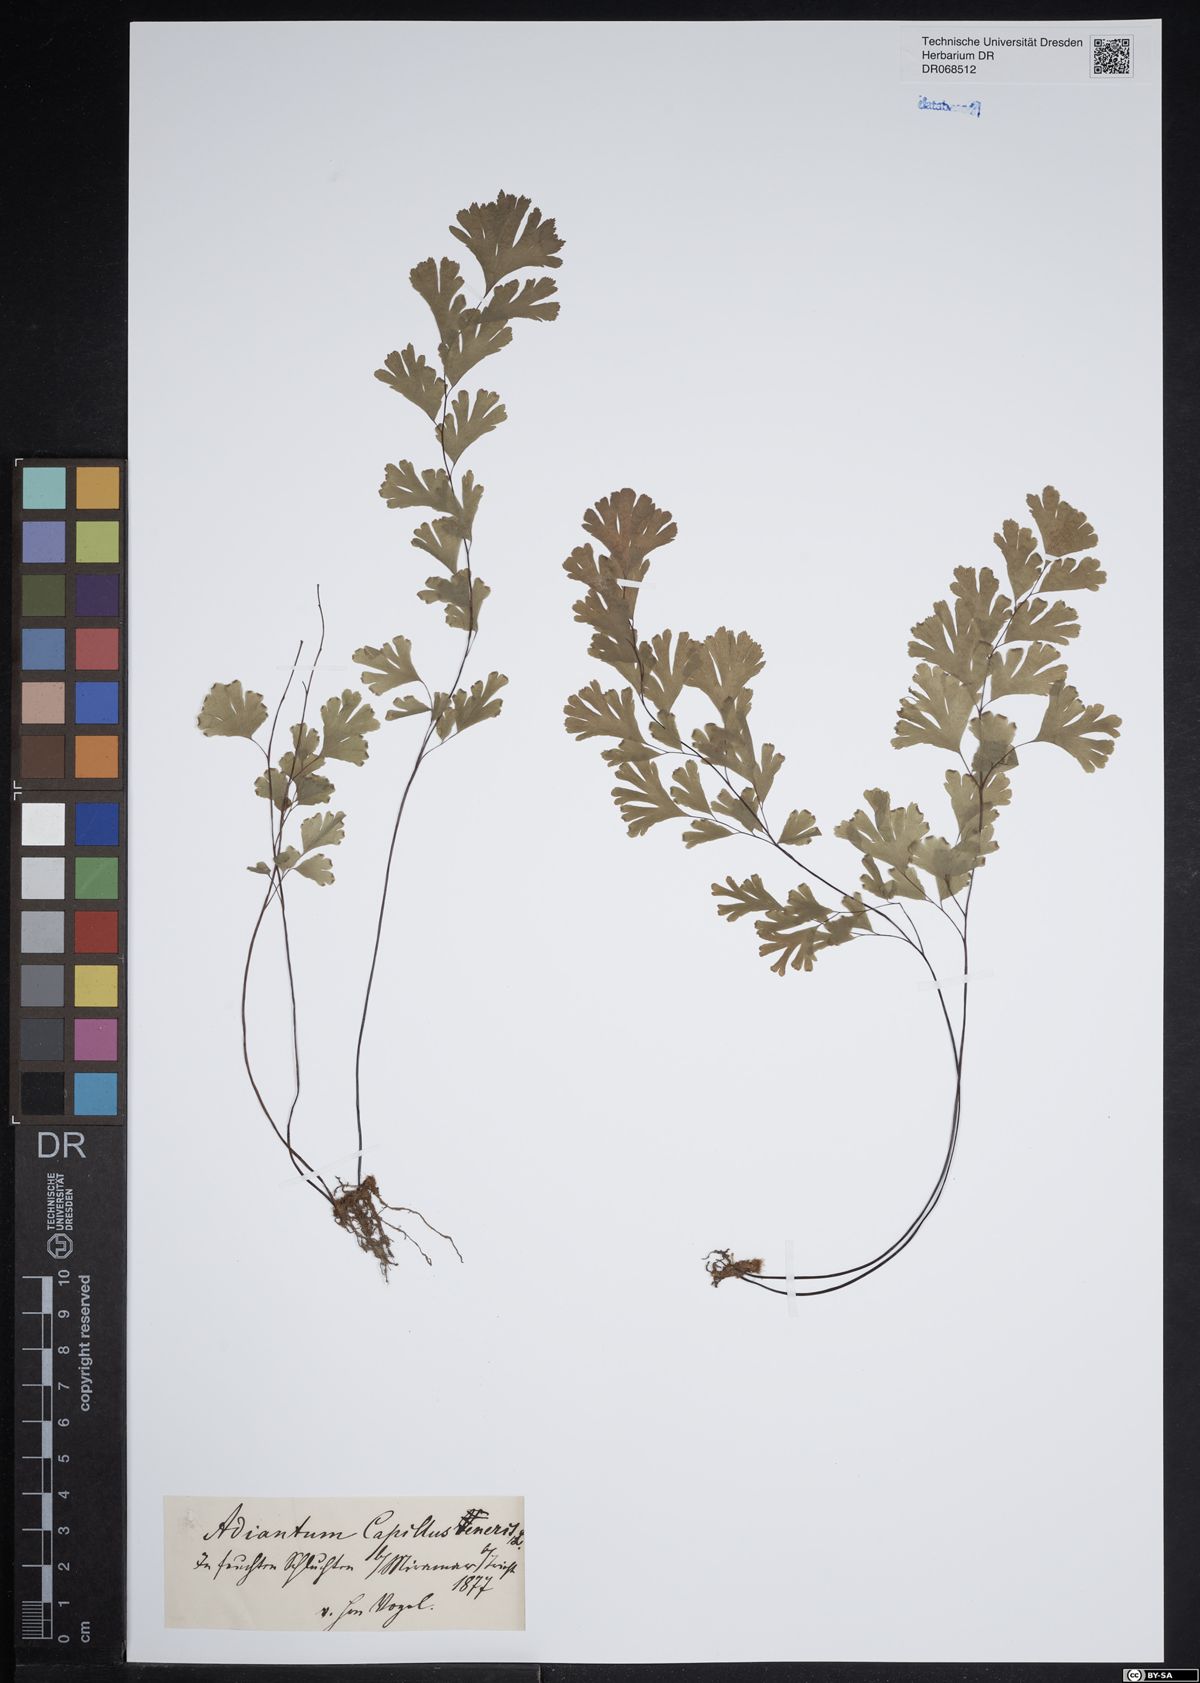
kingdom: Plantae
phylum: Tracheophyta
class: Polypodiopsida
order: Polypodiales
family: Pteridaceae
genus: Adiantum
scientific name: Adiantum capillus-veneris
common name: Maidenhair fern
